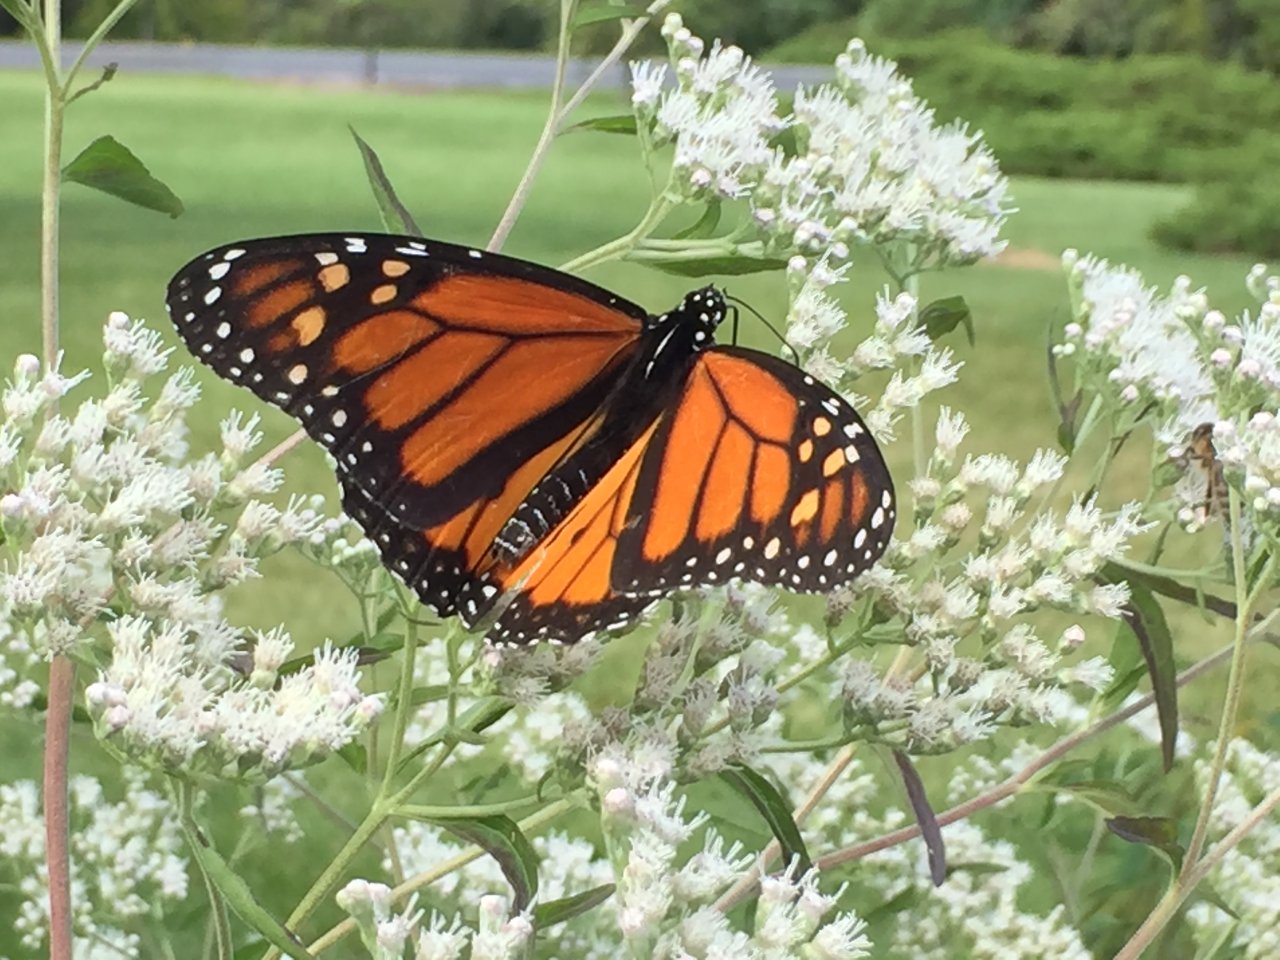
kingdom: Animalia
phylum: Arthropoda
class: Insecta
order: Lepidoptera
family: Nymphalidae
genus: Danaus
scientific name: Danaus plexippus
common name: Monarch
